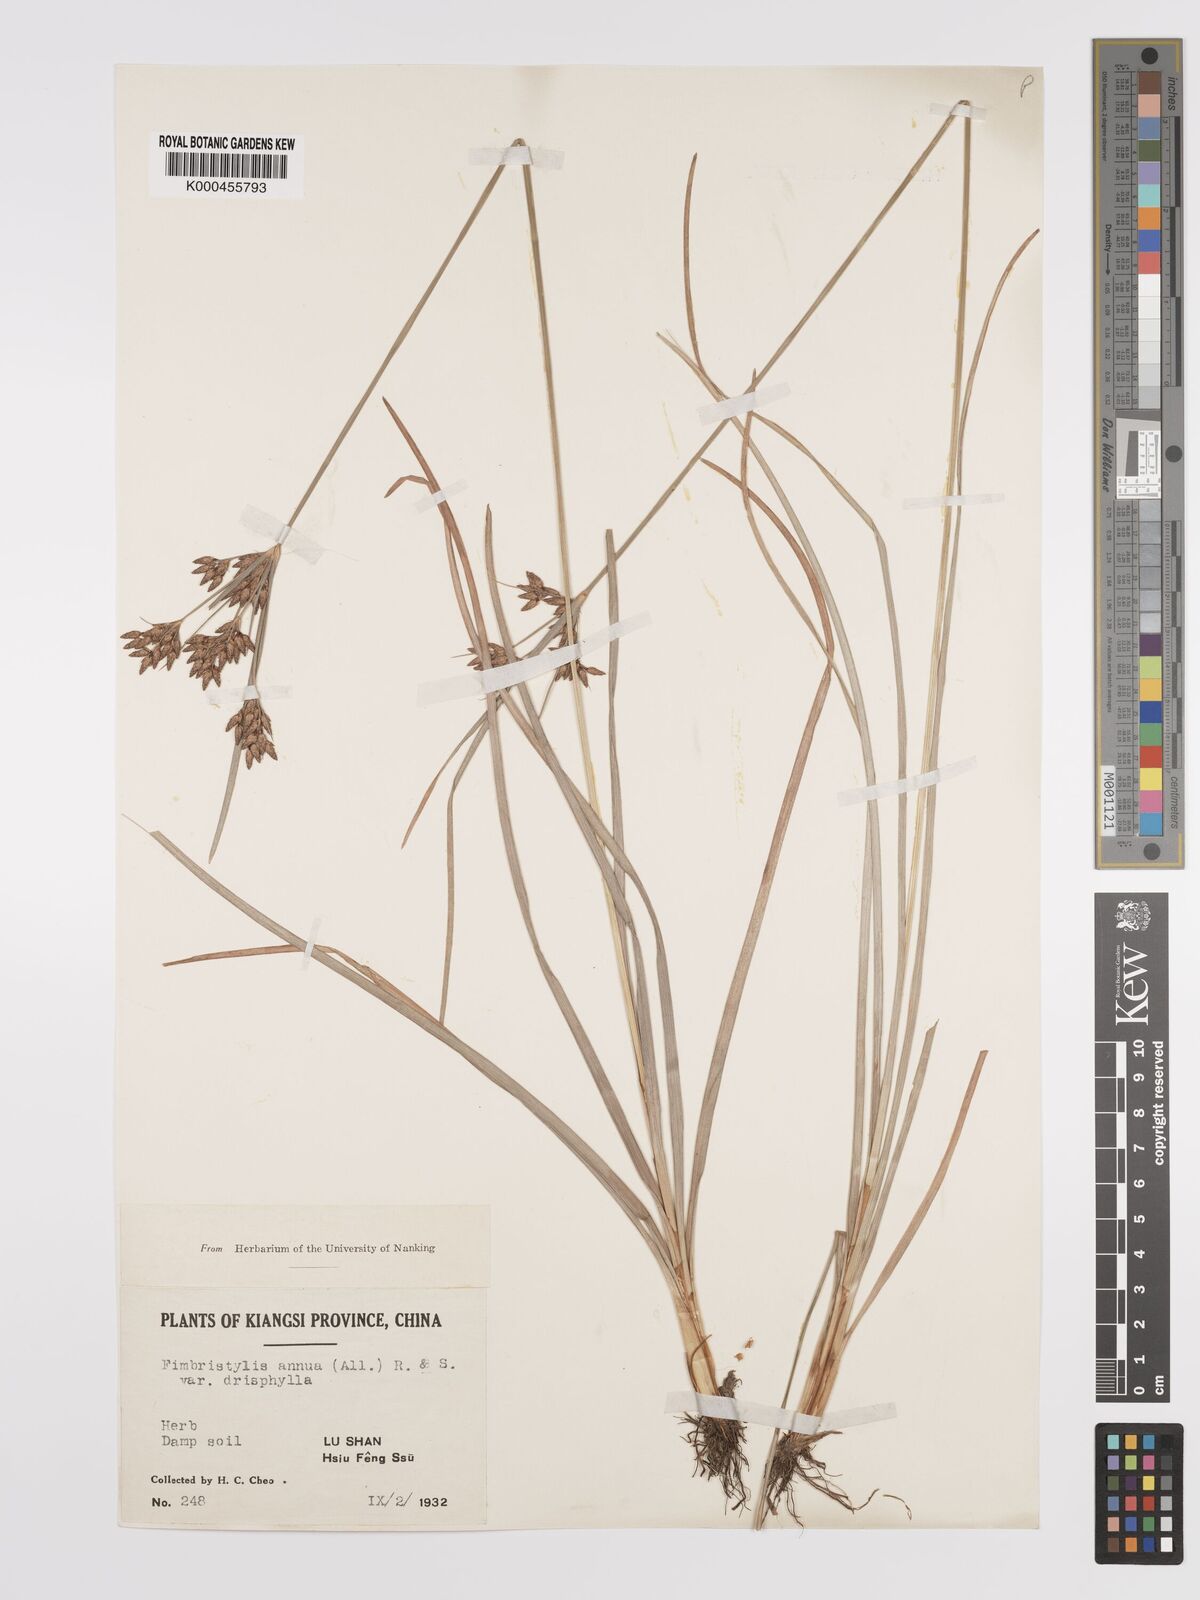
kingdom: Plantae
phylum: Tracheophyta
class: Liliopsida
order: Poales
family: Cyperaceae
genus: Fimbristylis
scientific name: Fimbristylis dichotoma
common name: Forked fimbry
